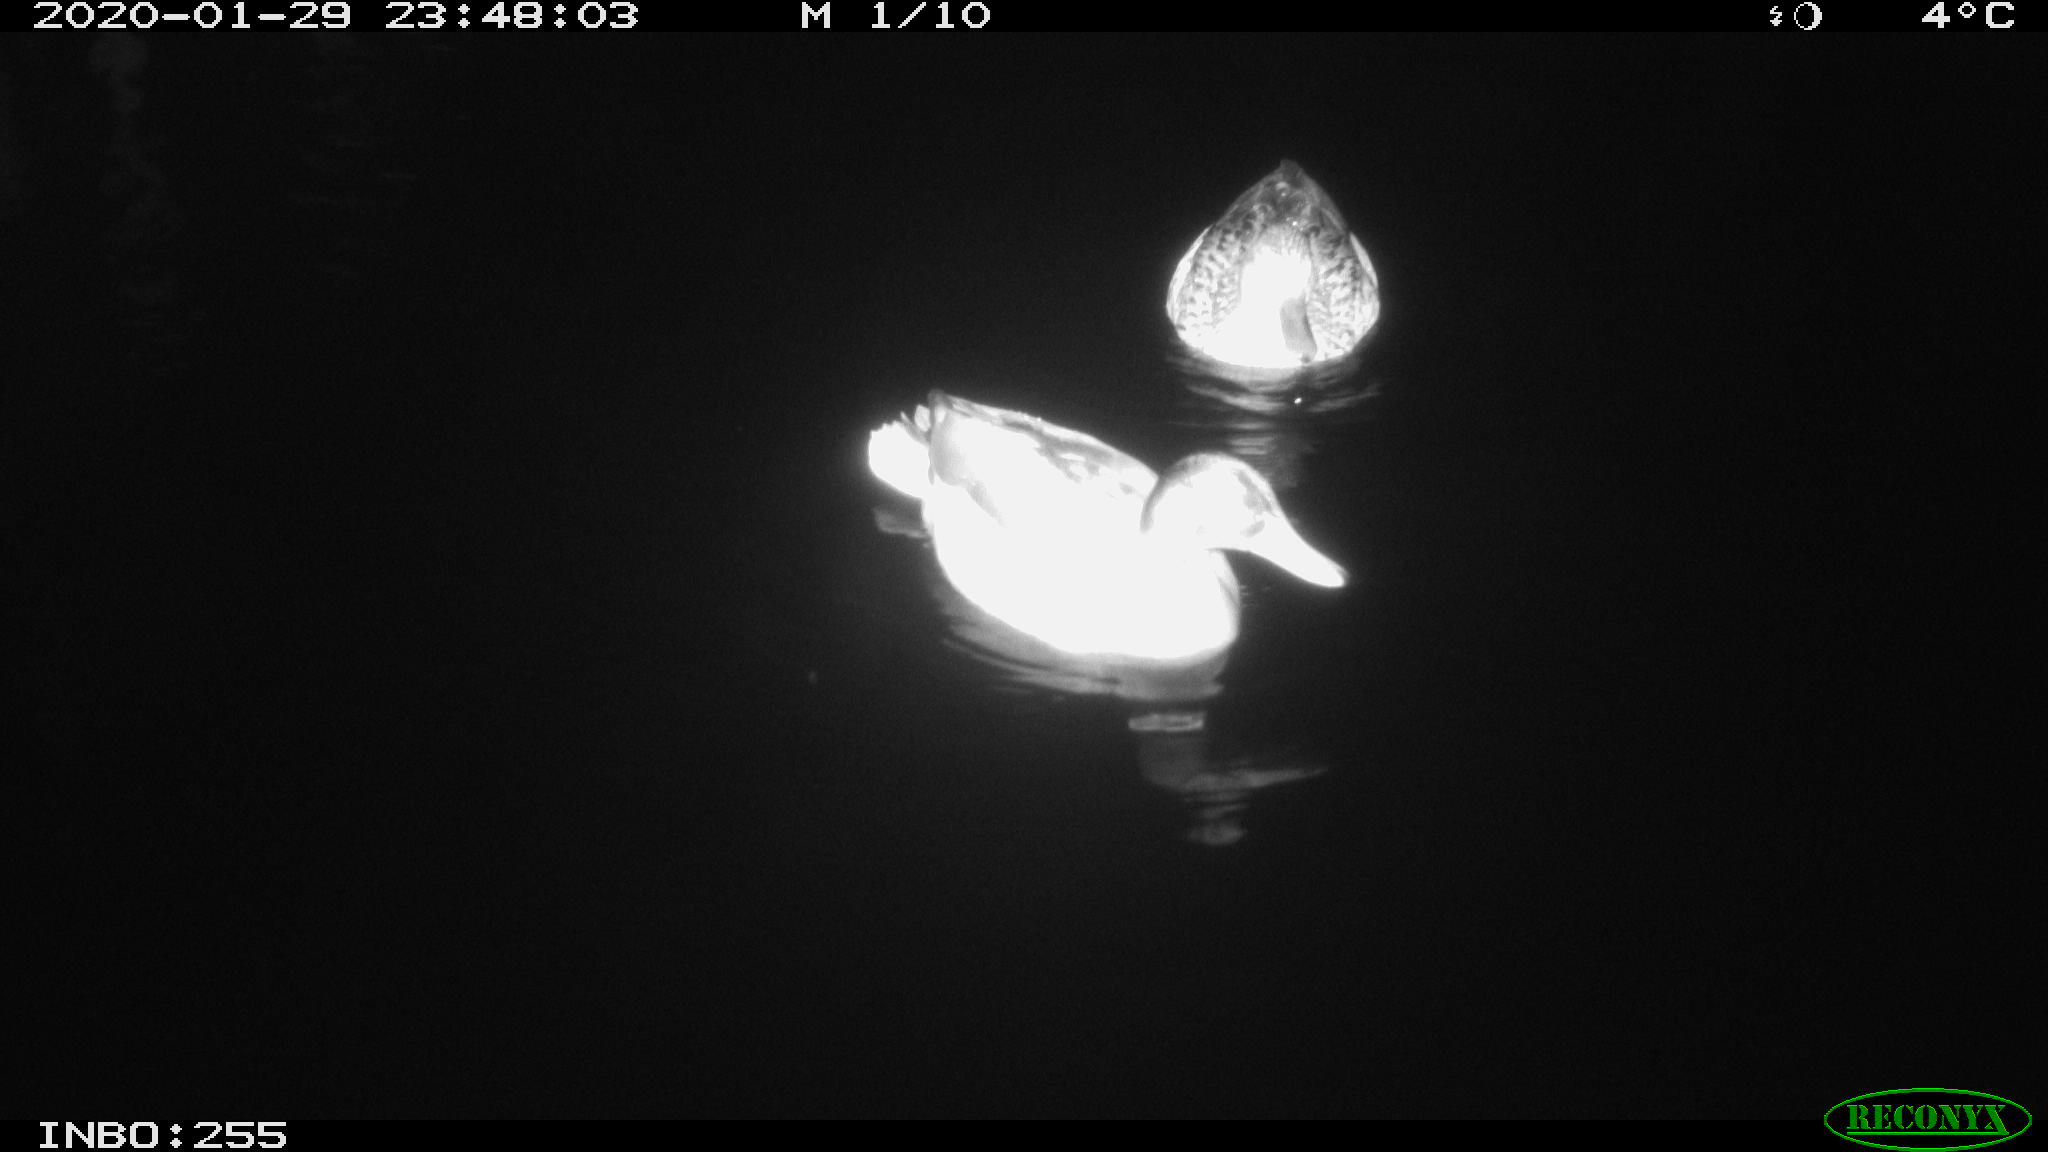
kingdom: Animalia
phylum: Chordata
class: Aves
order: Anseriformes
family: Anatidae
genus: Anas
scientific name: Anas platyrhynchos
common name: Mallard
